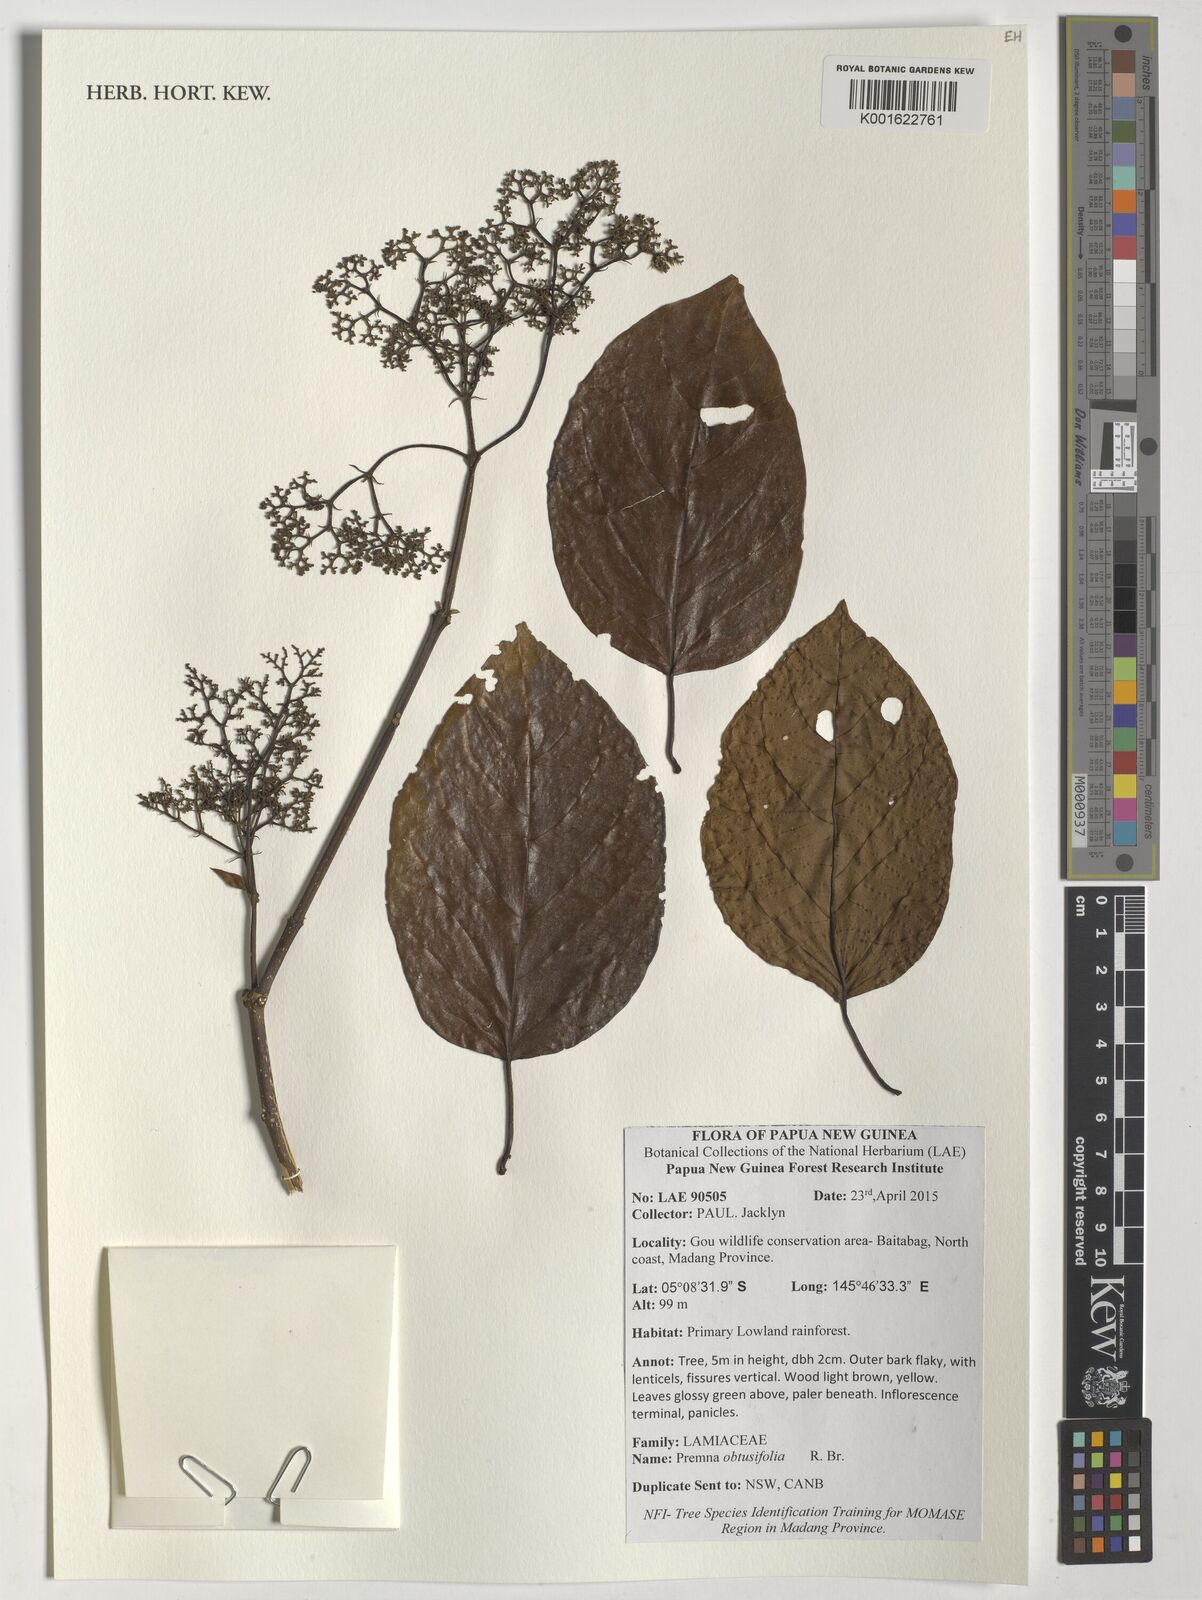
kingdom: Plantae
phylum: Tracheophyta
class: Magnoliopsida
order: Lamiales
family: Lamiaceae
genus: Premna
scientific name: Premna serratifolia
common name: Bastard guelder
